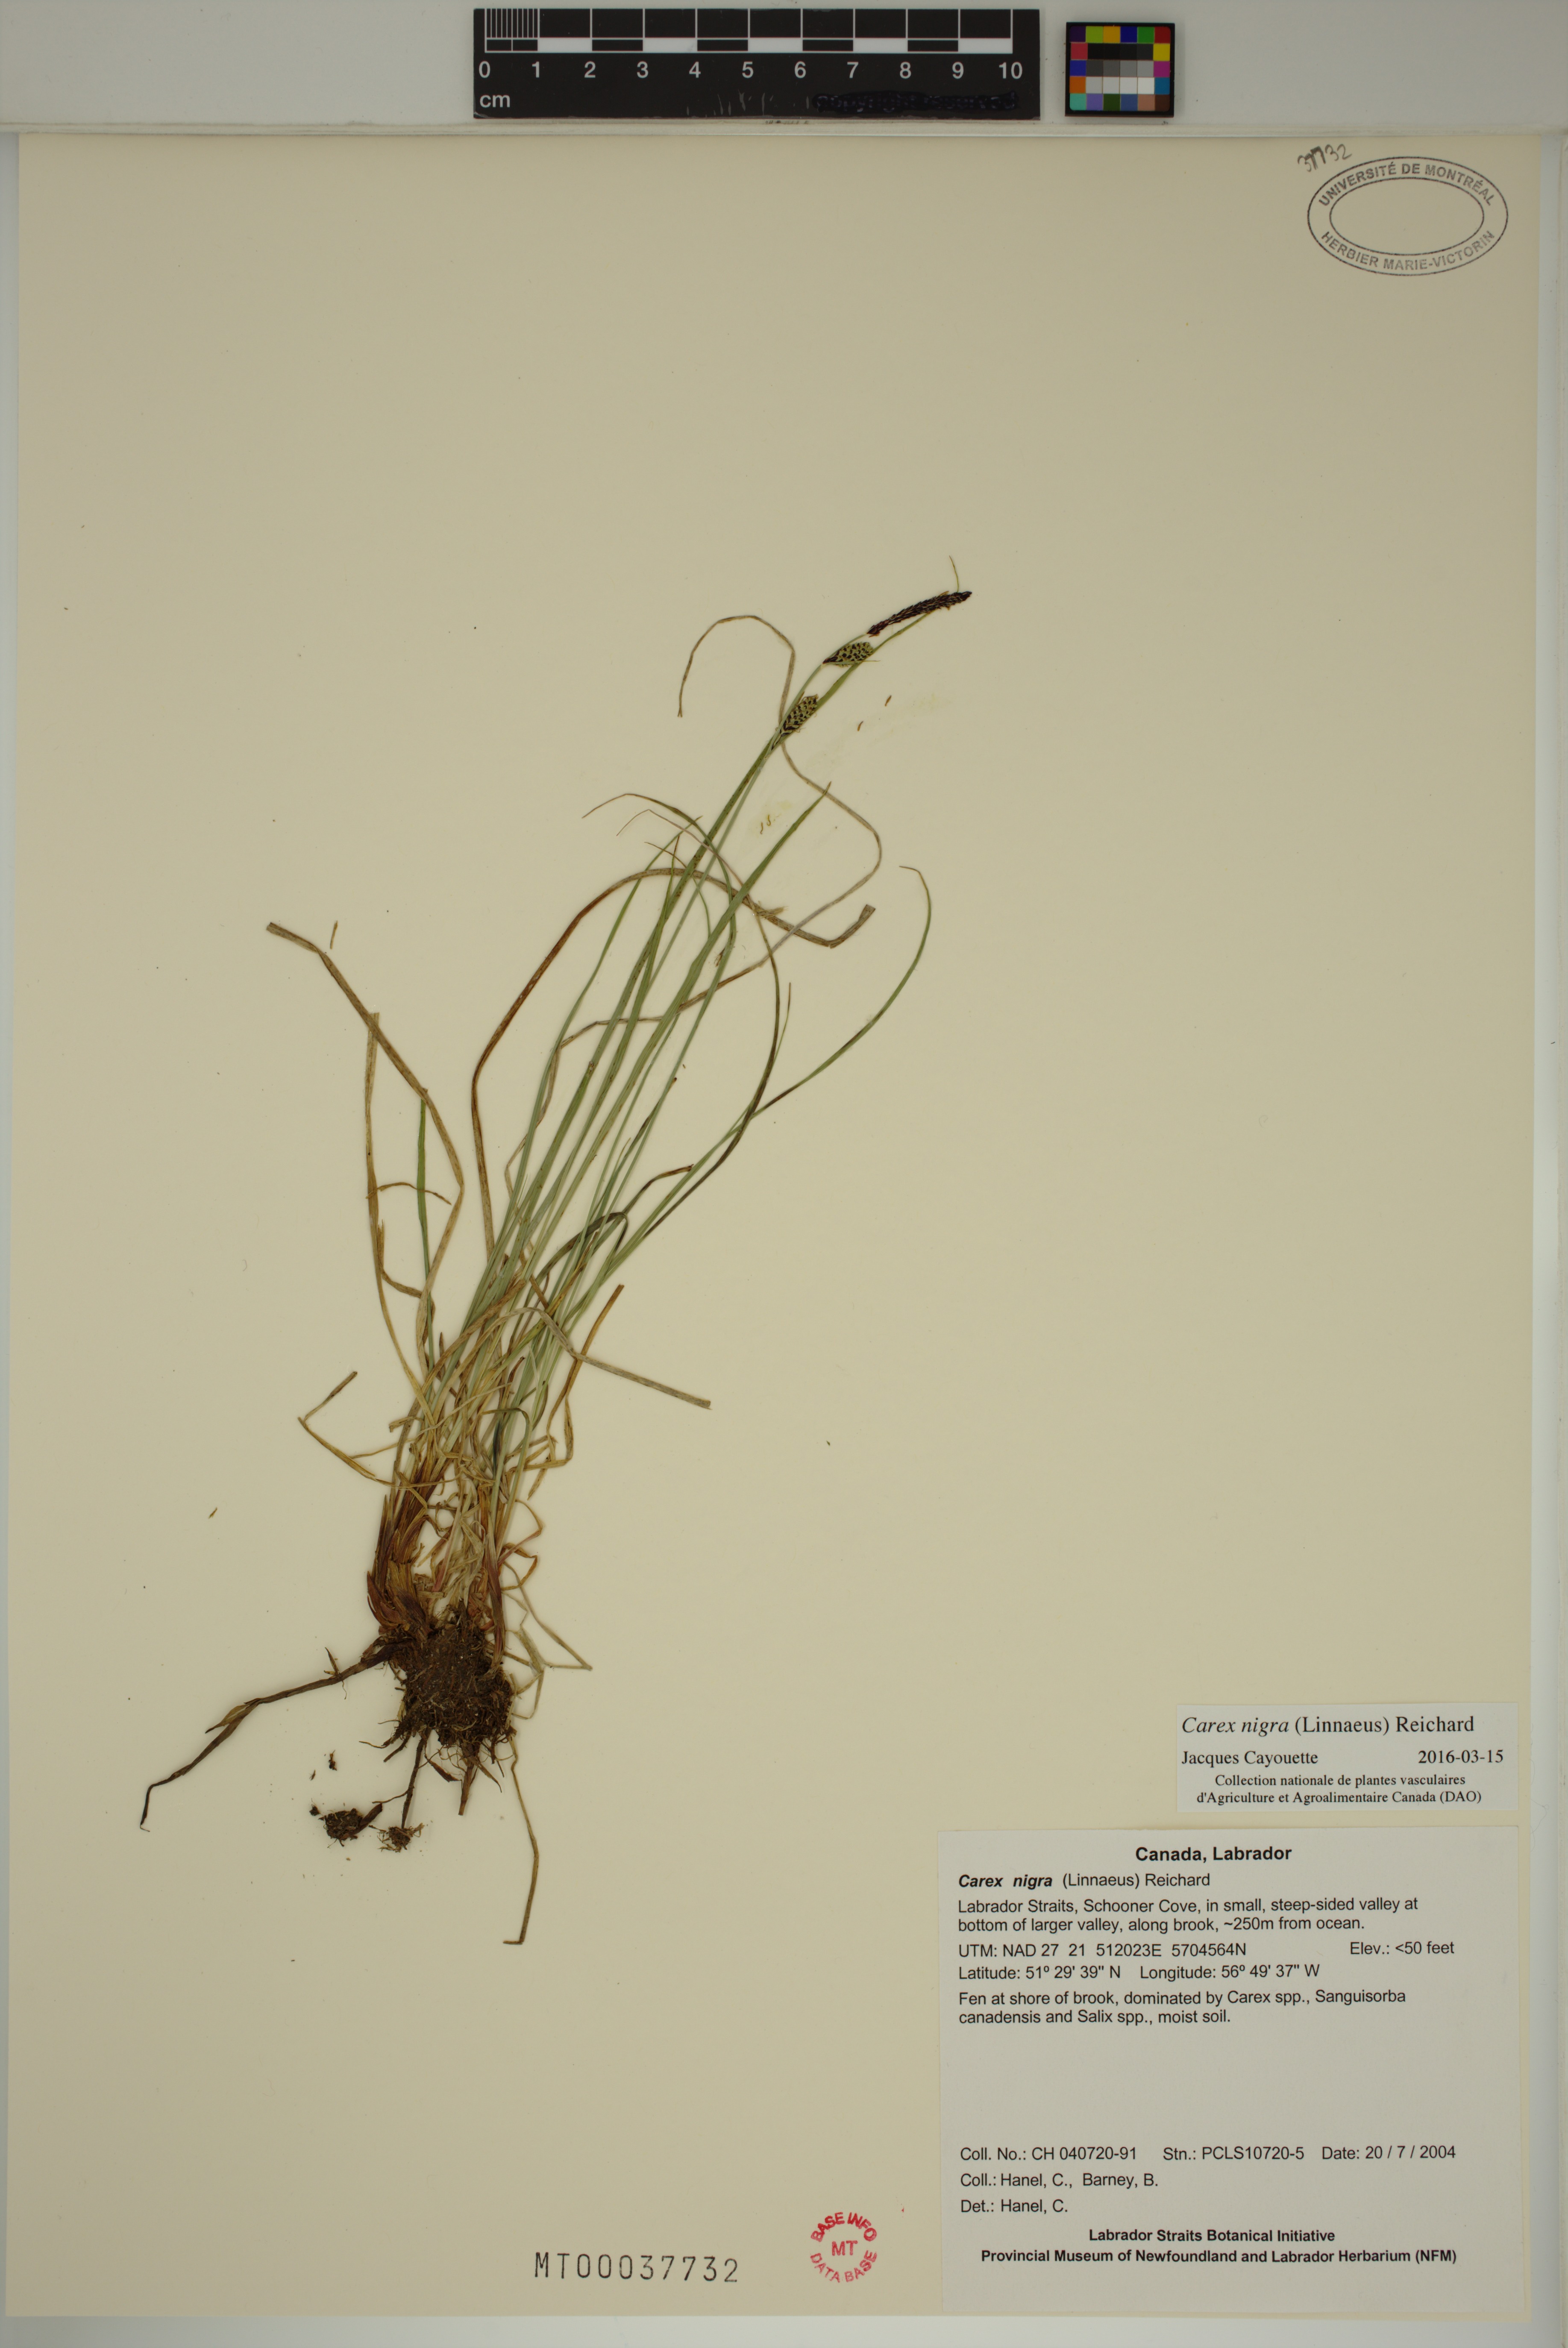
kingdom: Plantae
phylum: Tracheophyta
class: Liliopsida
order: Poales
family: Cyperaceae
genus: Carex
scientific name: Carex nigra
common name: Common sedge
